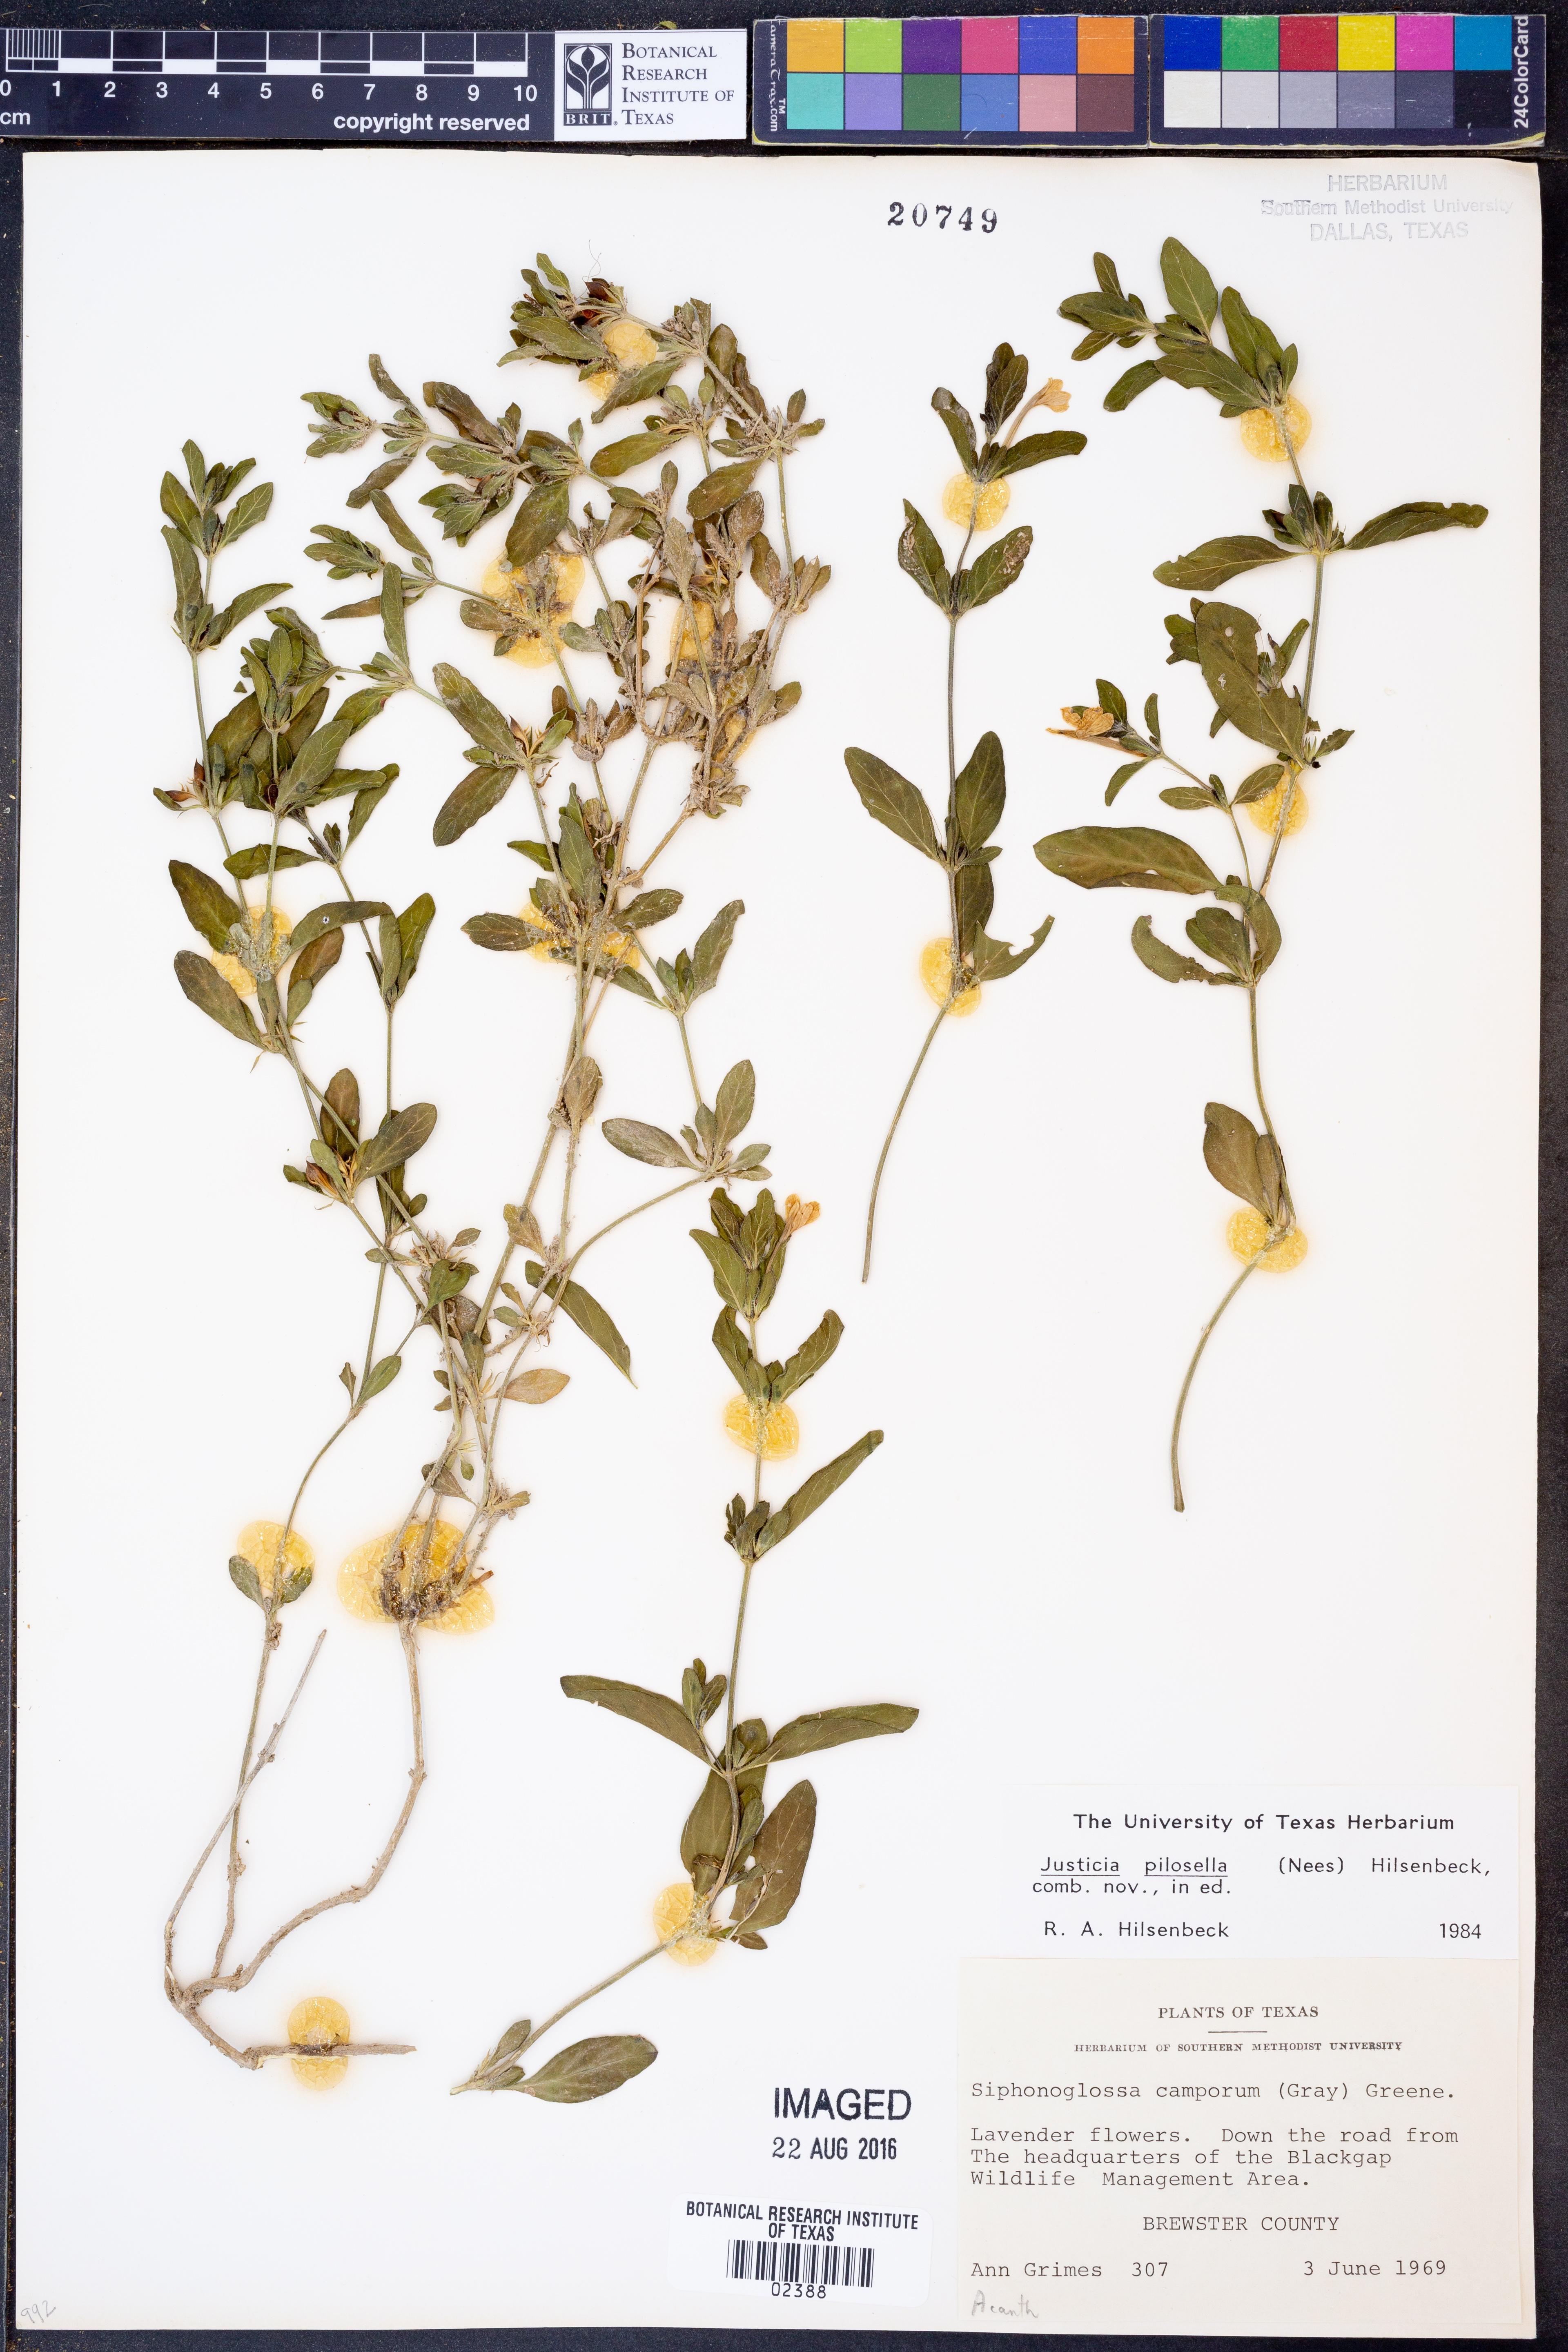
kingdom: Plantae
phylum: Tracheophyta
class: Magnoliopsida
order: Lamiales
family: Acanthaceae
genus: Justicia
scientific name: Justicia pilosella
